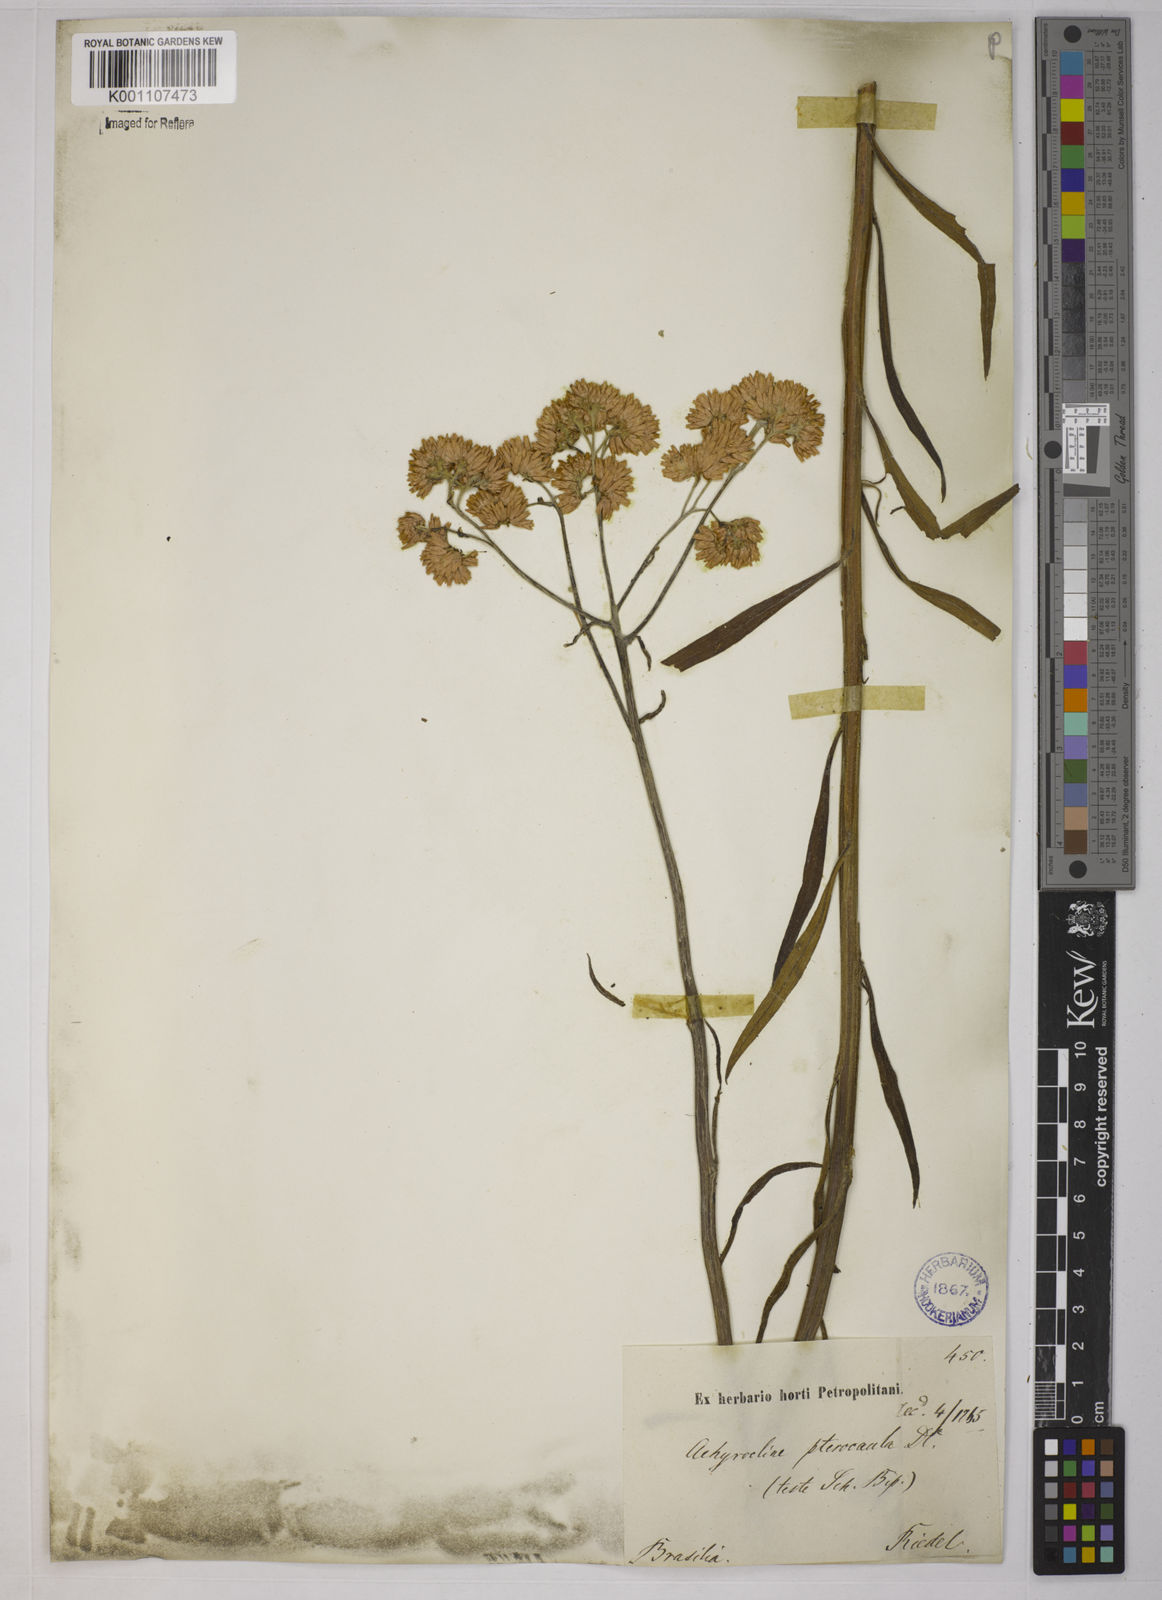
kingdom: Plantae
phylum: Tracheophyta
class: Magnoliopsida
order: Asterales
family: Asteraceae
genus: Achyrocline
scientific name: Achyrocline alata
